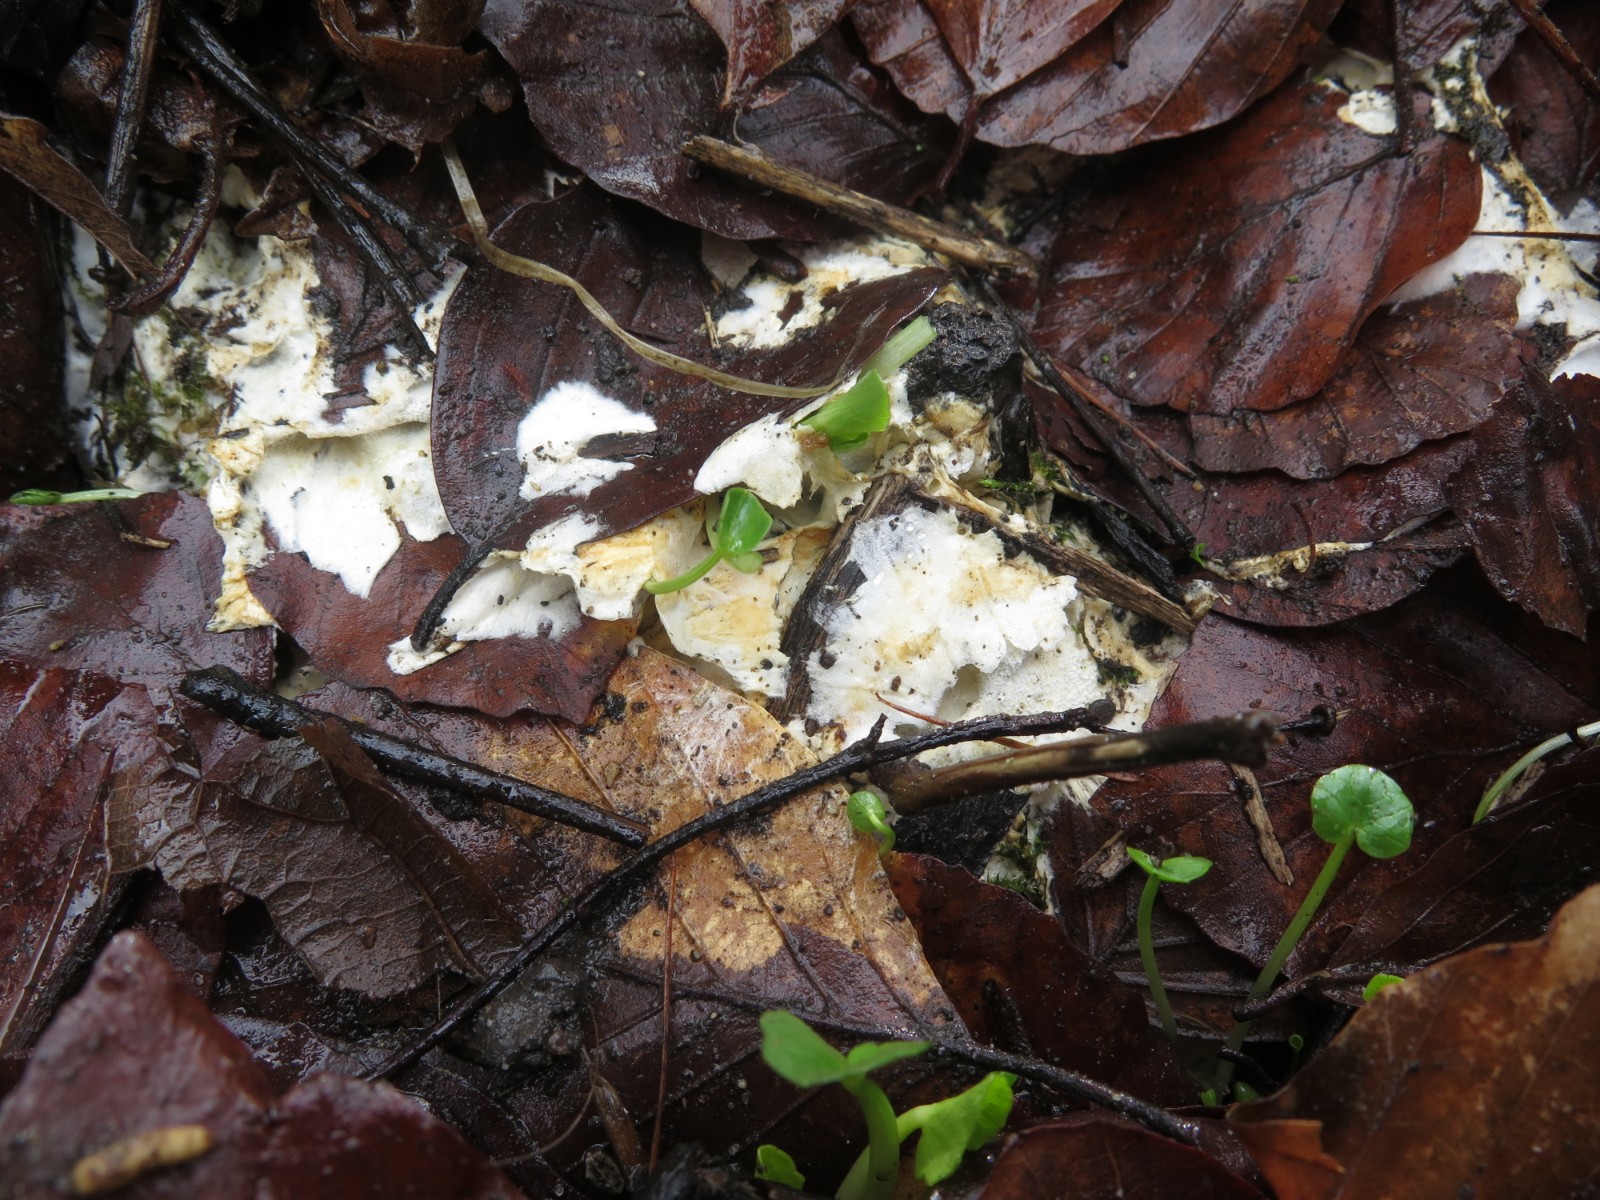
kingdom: Fungi
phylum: Basidiomycota
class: Agaricomycetes
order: Polyporales
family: Steccherinaceae
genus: Loweomyces
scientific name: Loweomyces wynneae
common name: krybende blødporesvamp
